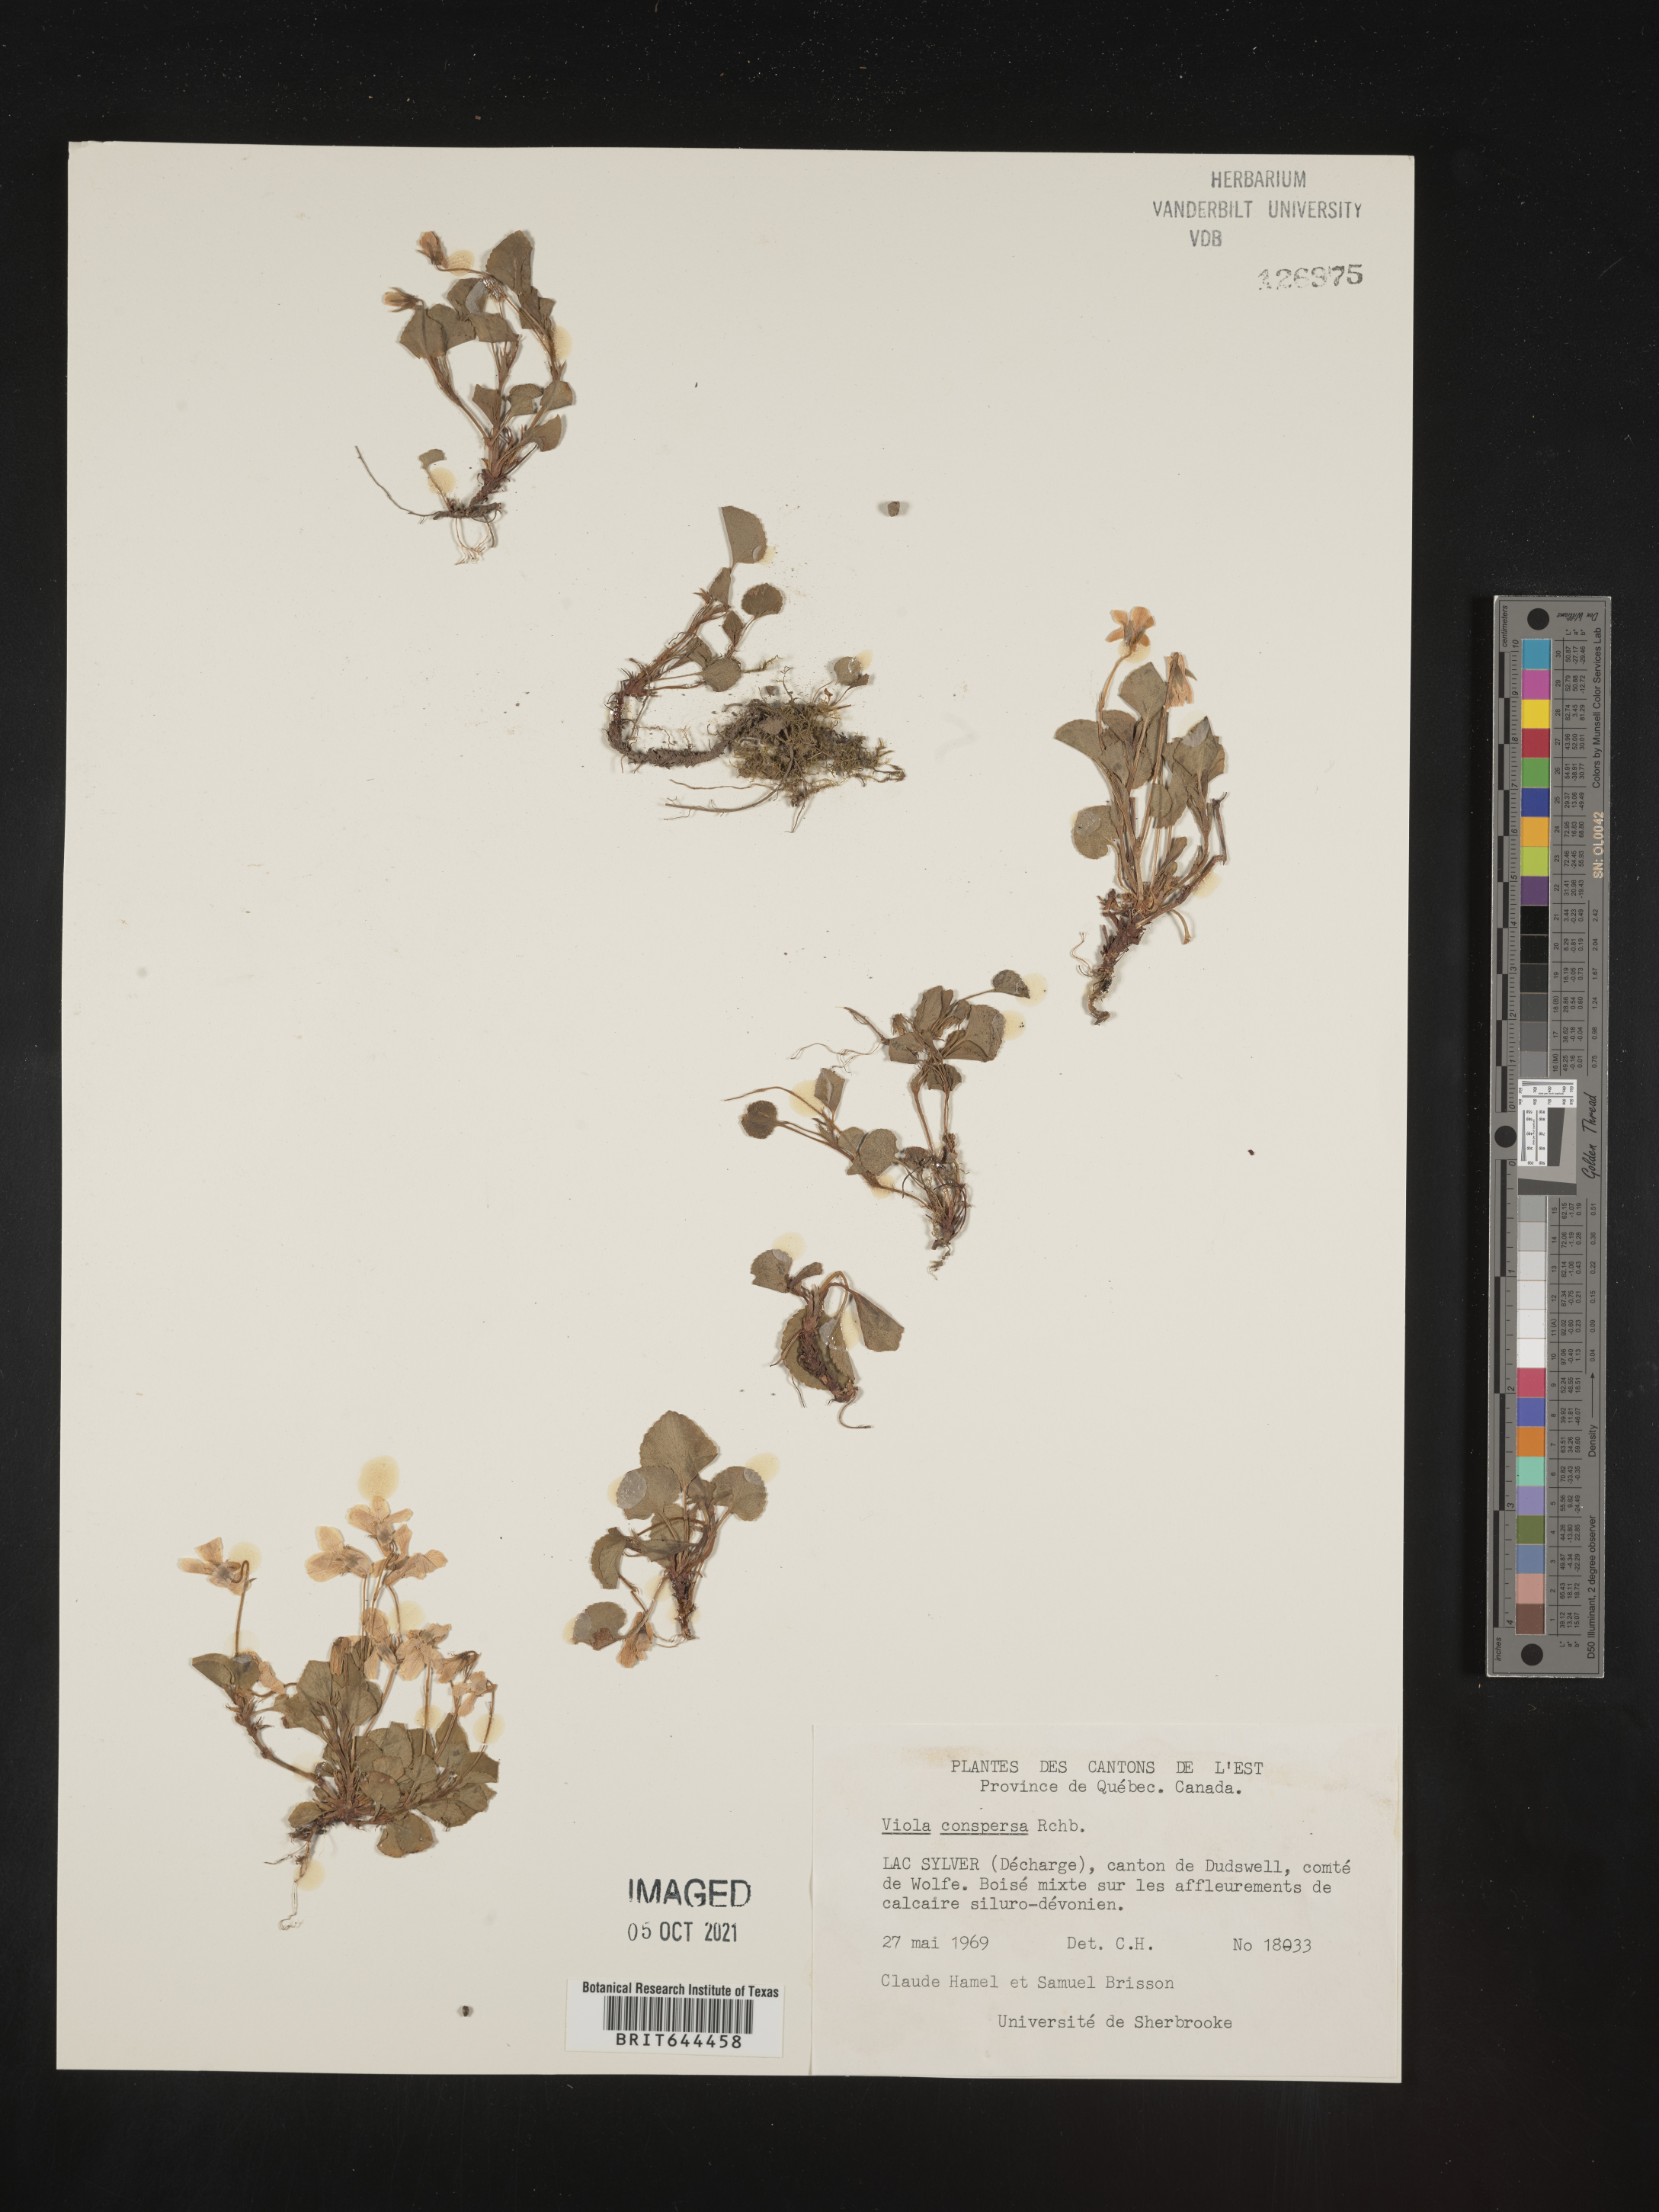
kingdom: Plantae
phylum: Tracheophyta
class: Magnoliopsida
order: Malpighiales
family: Violaceae
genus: Viola
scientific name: Viola
